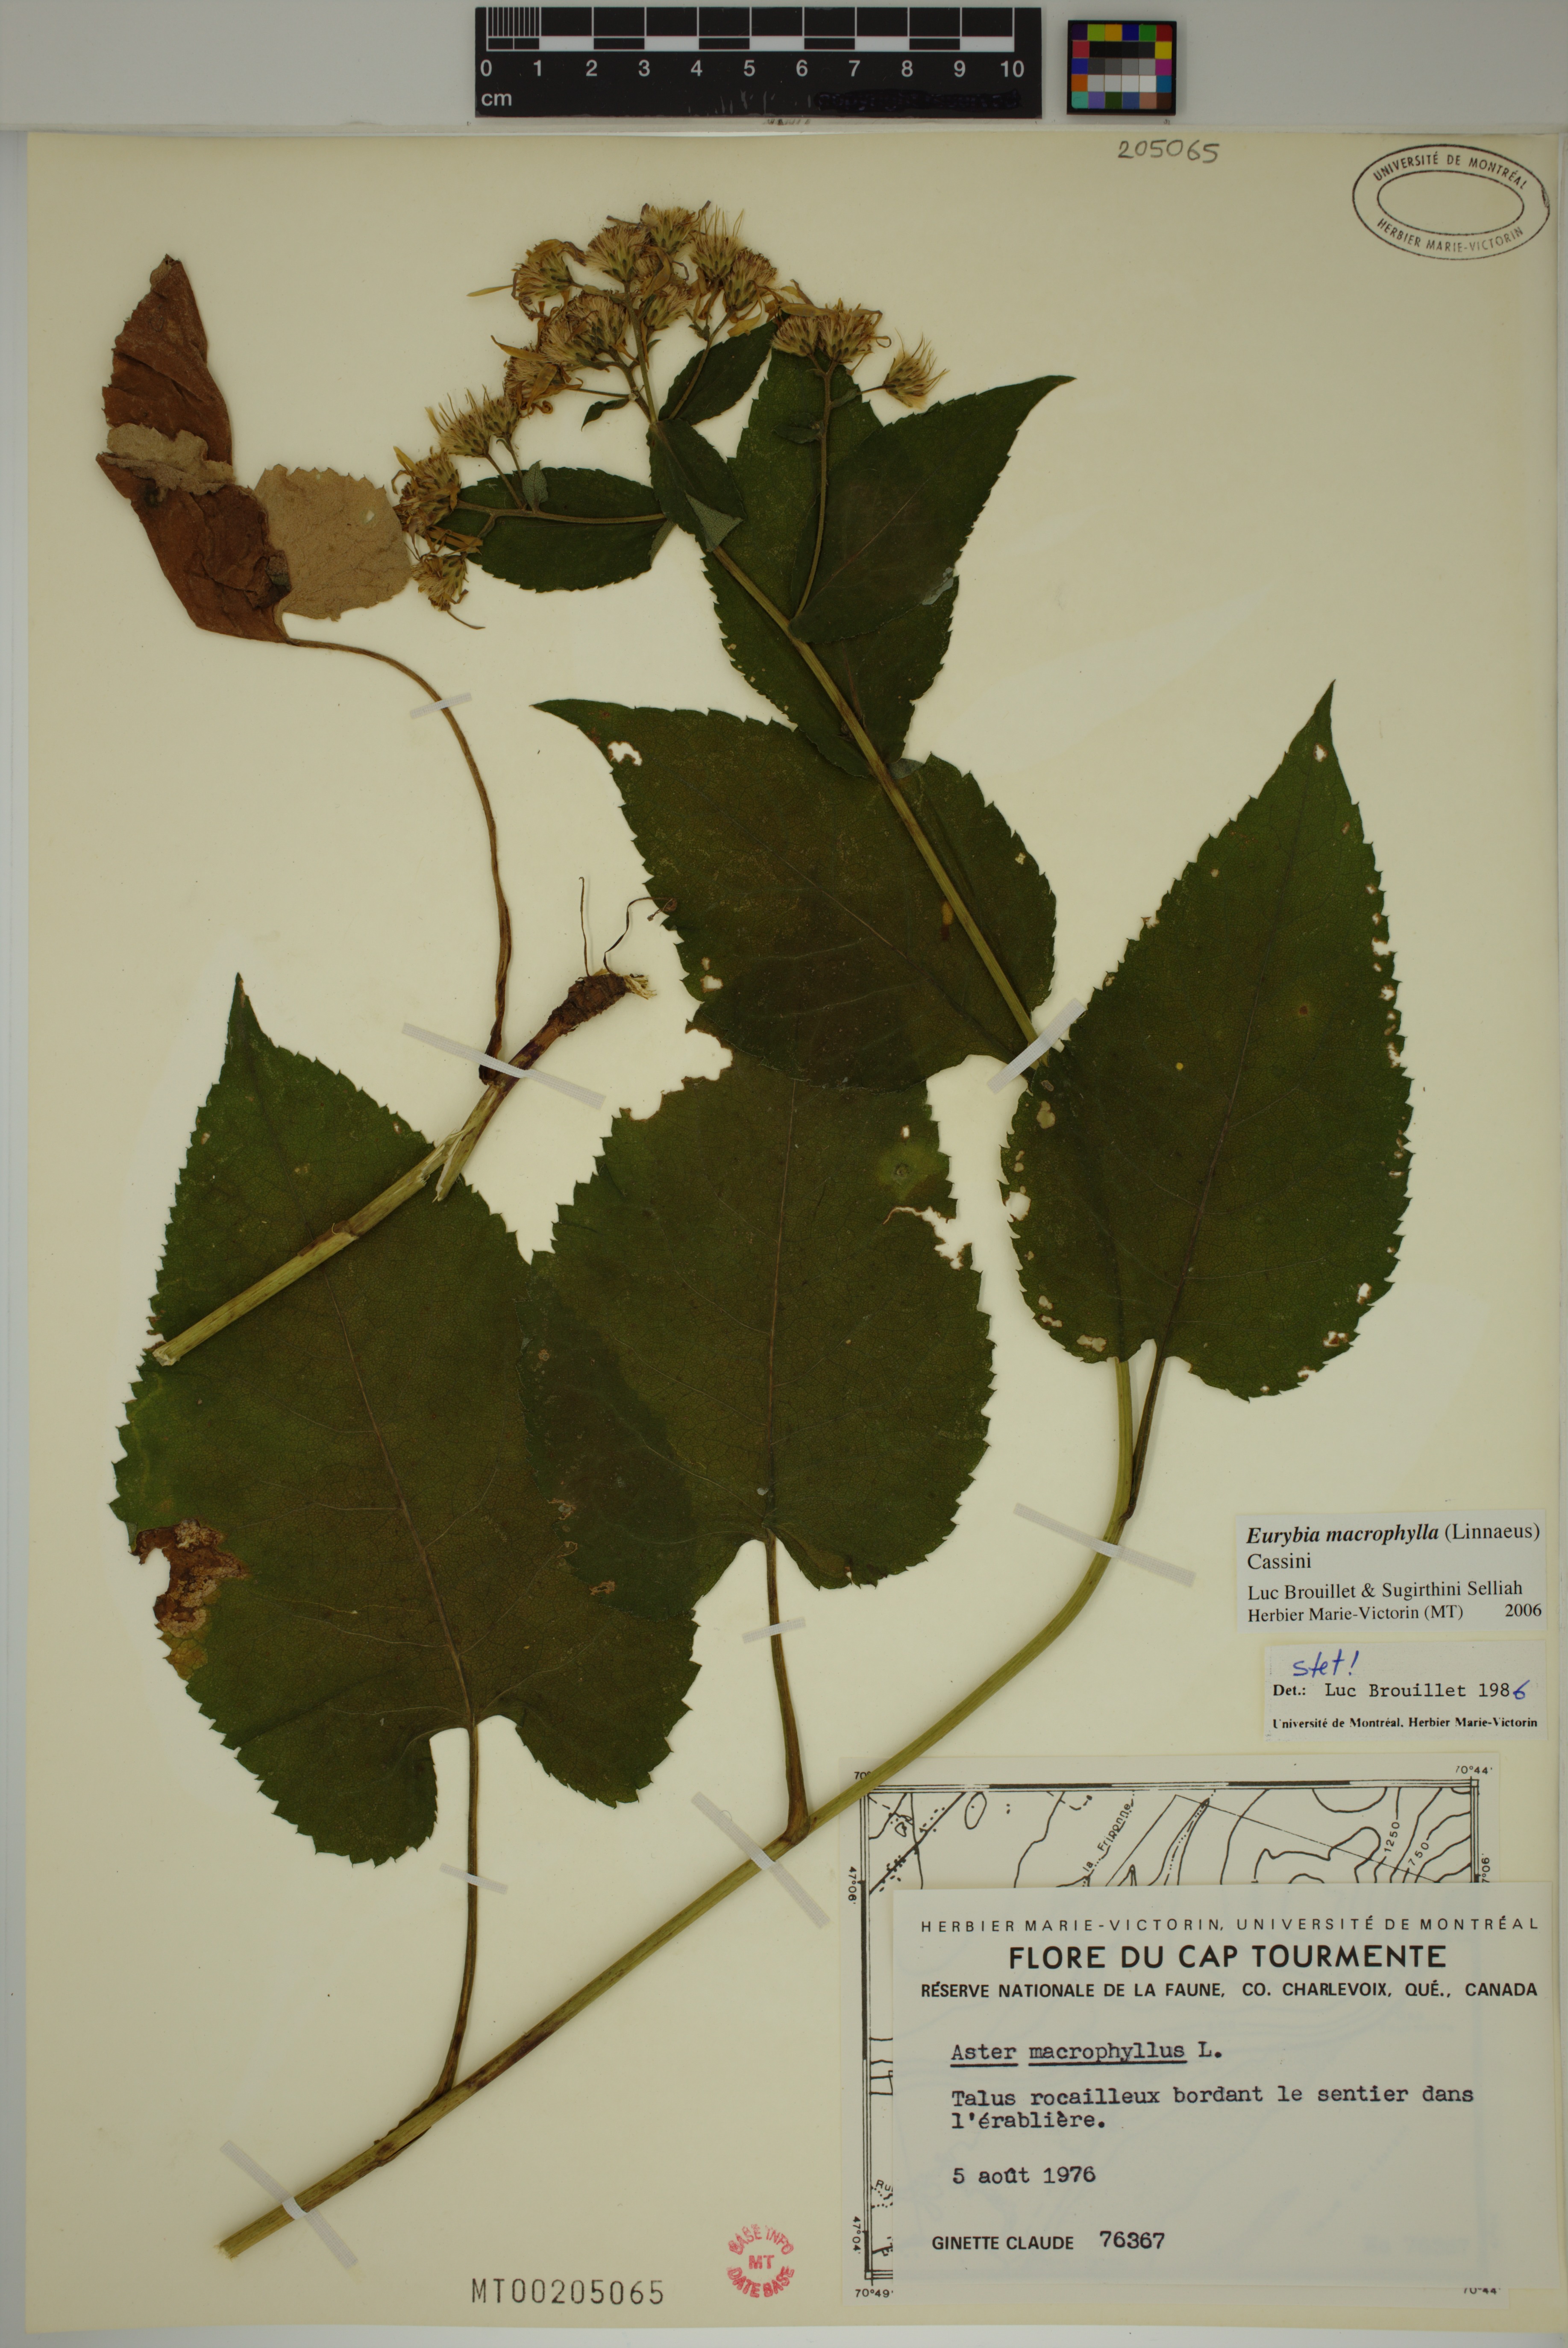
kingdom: Plantae
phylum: Tracheophyta
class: Magnoliopsida
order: Asterales
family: Asteraceae
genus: Eurybia
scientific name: Eurybia macrophylla
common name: Big-leaved aster
